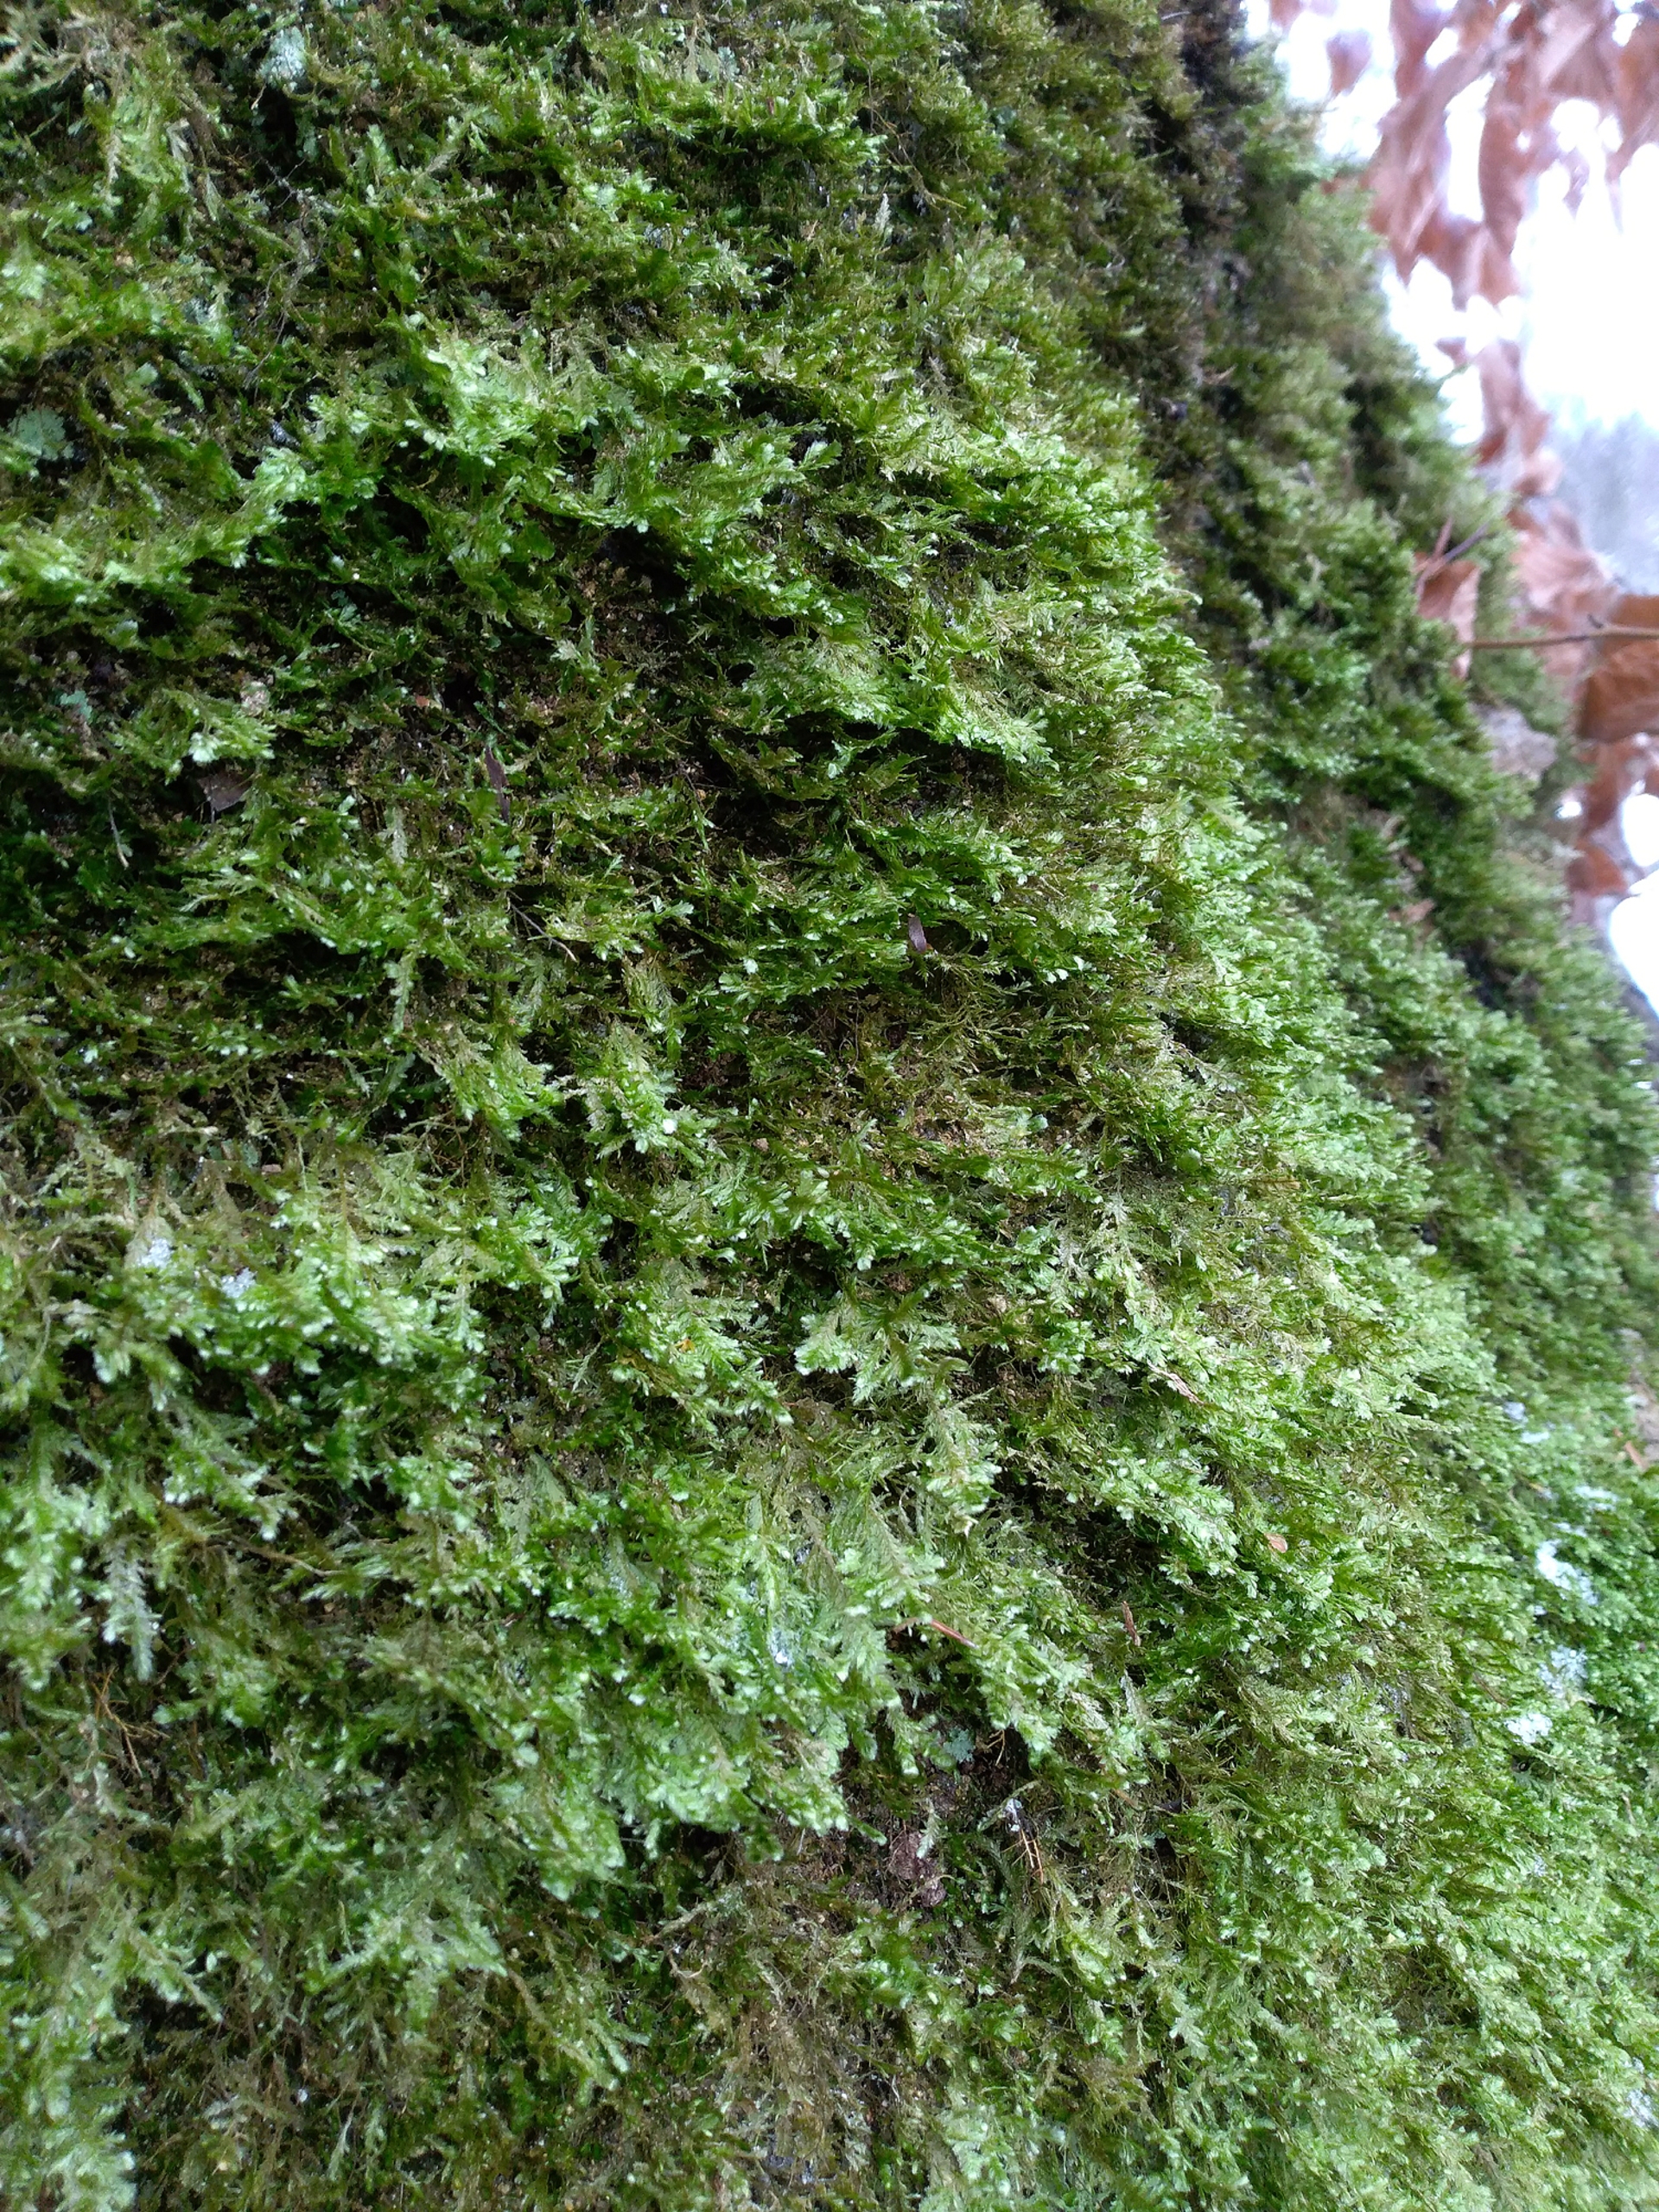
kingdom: Plantae
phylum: Bryophyta
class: Bryopsida
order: Hypnales
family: Neckeraceae
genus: Alleniella
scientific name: Alleniella complanata
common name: Almindelig fladmos
